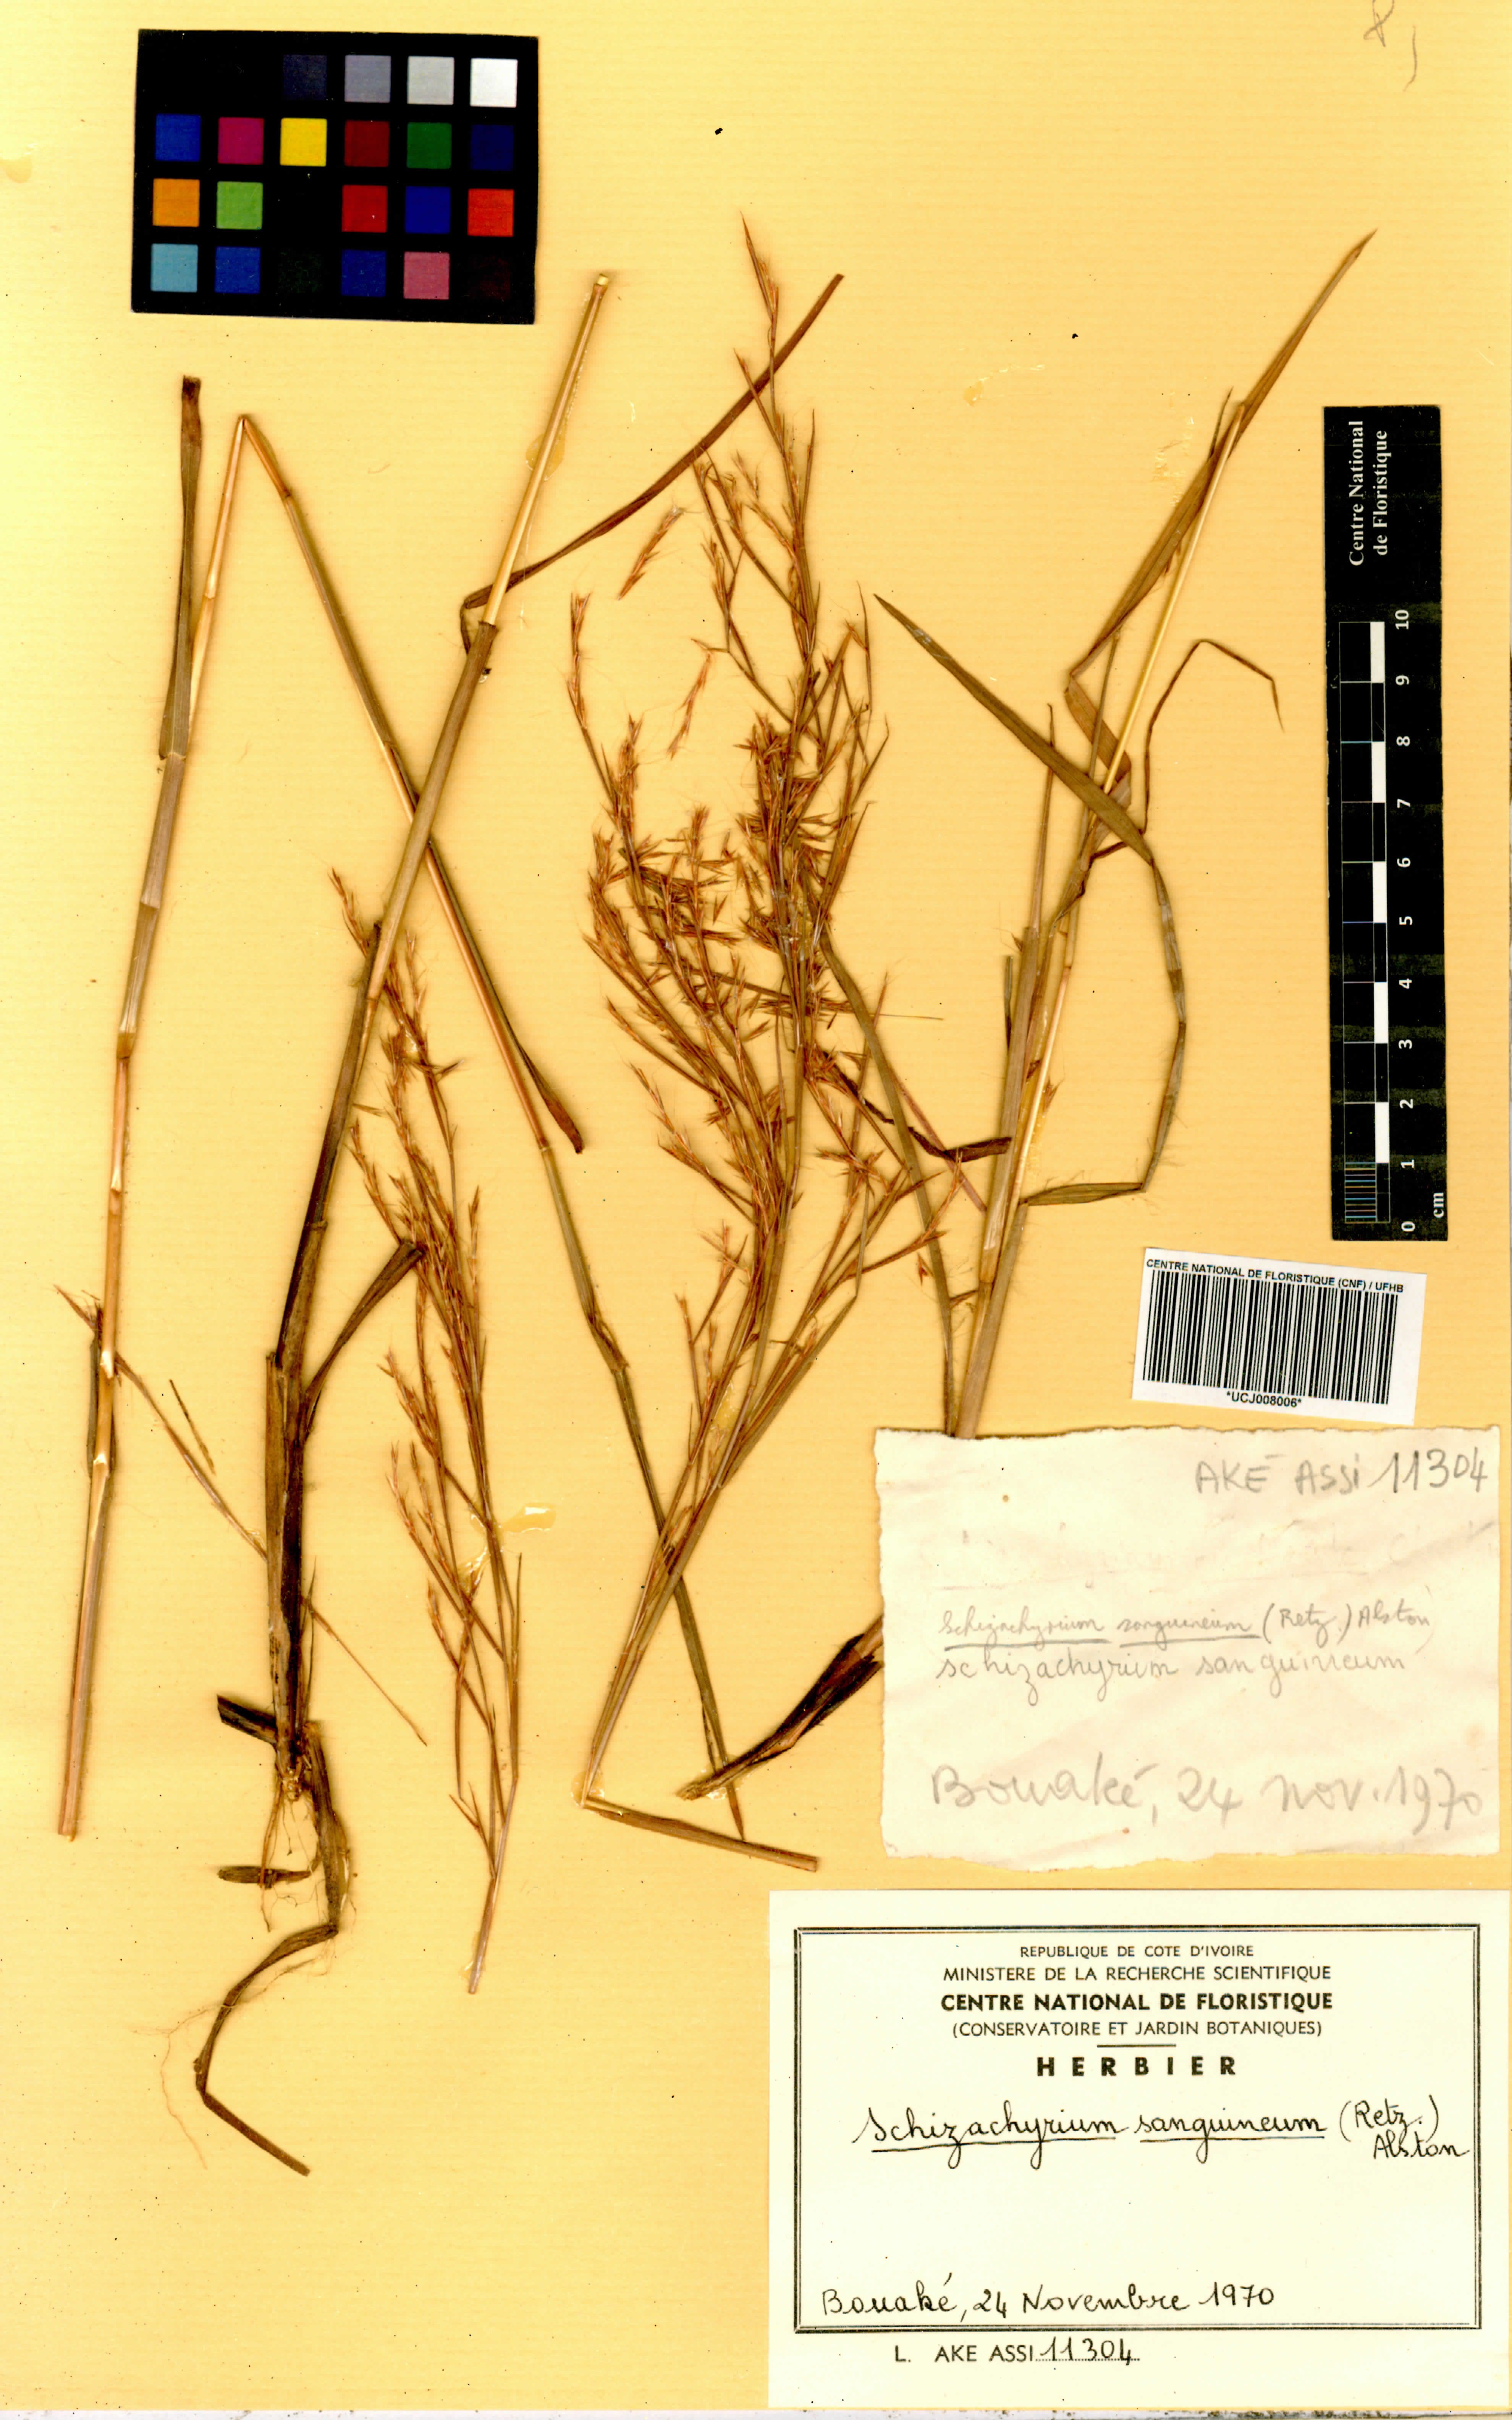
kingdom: Plantae
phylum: Tracheophyta
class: Liliopsida
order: Poales
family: Poaceae
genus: Schizachyrium
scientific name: Schizachyrium sanguineum
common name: Crimson bluestem
